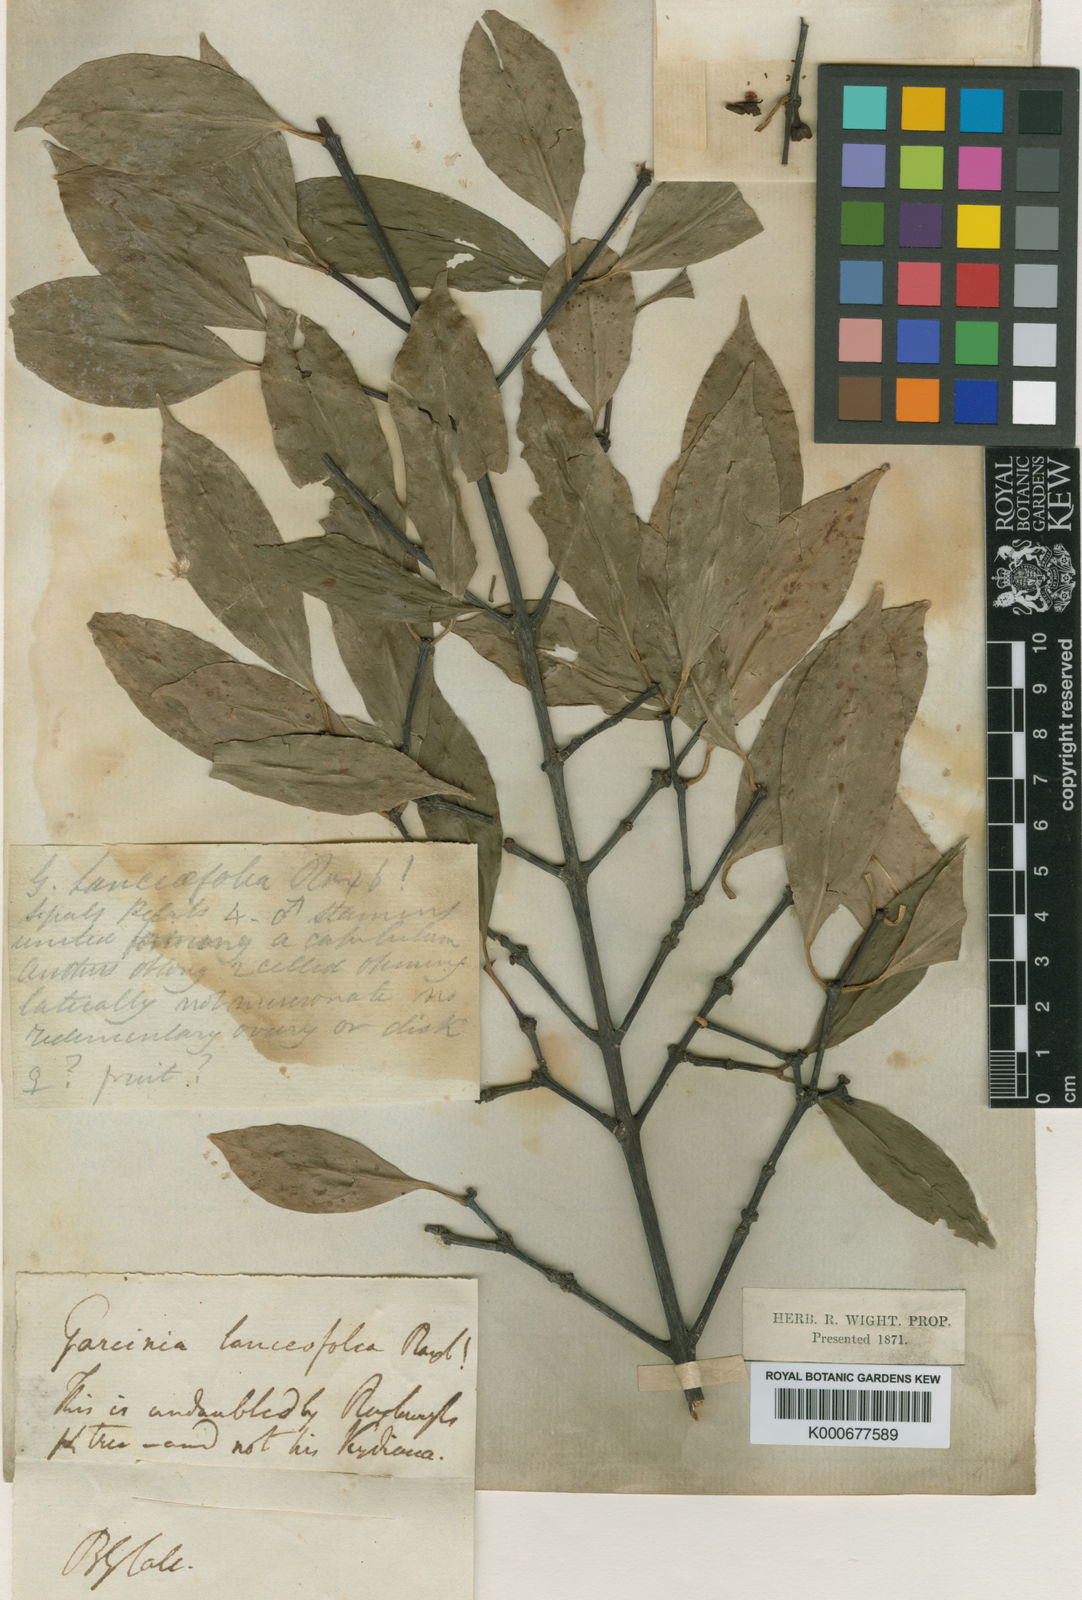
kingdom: Plantae
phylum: Tracheophyta
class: Magnoliopsida
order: Malpighiales
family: Clusiaceae
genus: Garcinia
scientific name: Garcinia lanceifolia
